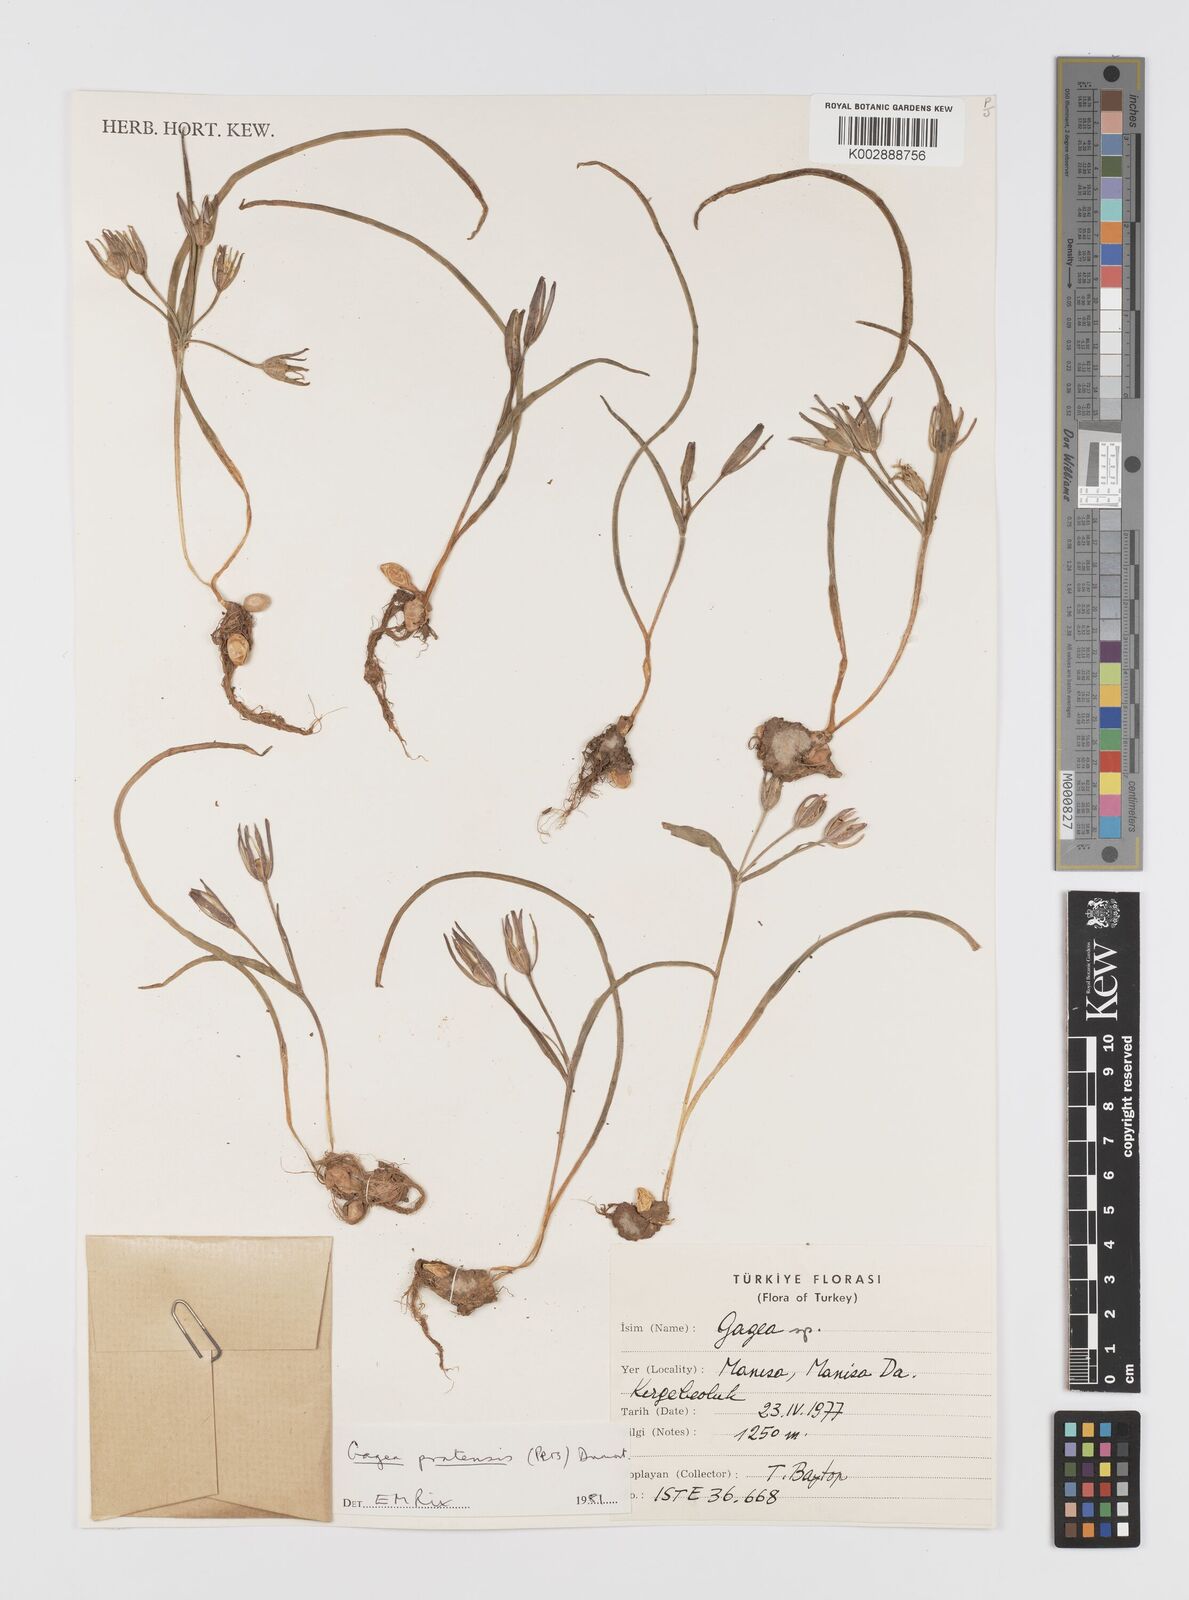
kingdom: Plantae
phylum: Tracheophyta
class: Liliopsida
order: Liliales
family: Liliaceae
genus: Gagea
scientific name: Gagea pratensis
